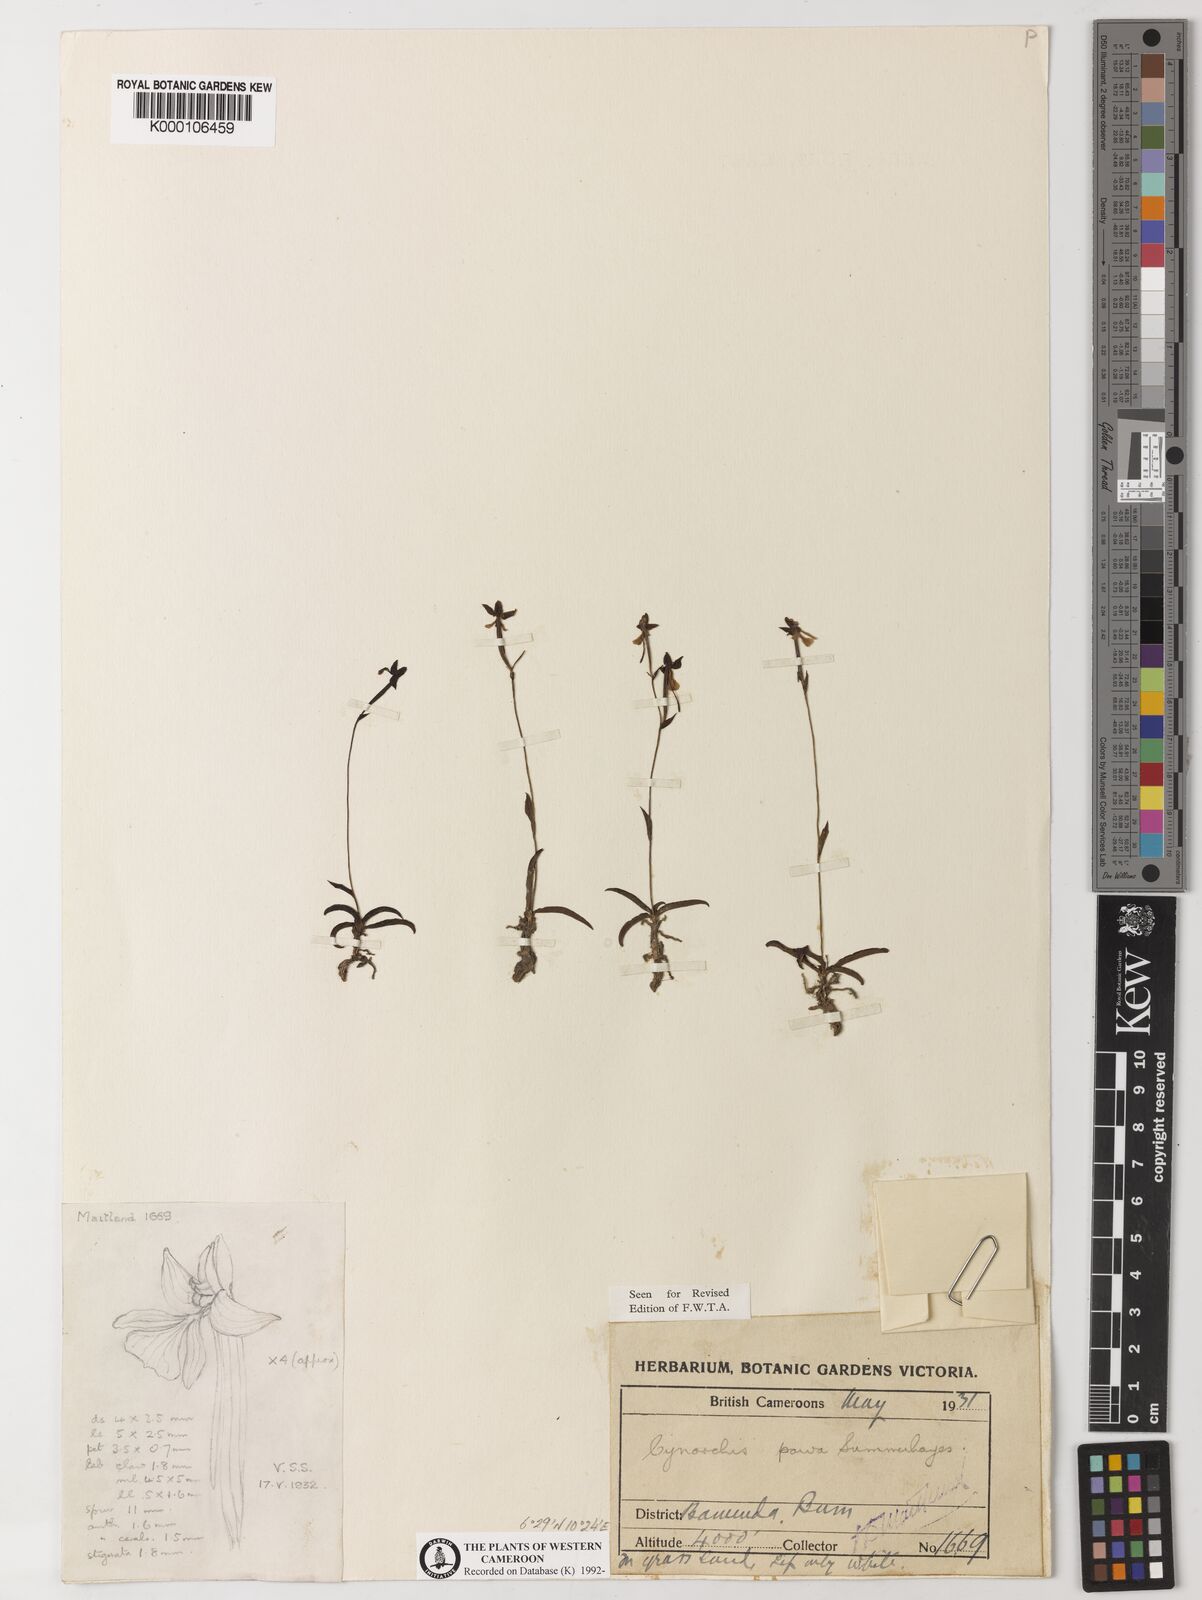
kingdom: Plantae
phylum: Tracheophyta
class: Liliopsida
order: Asparagales
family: Orchidaceae
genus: Habenaria
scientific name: Habenaria
